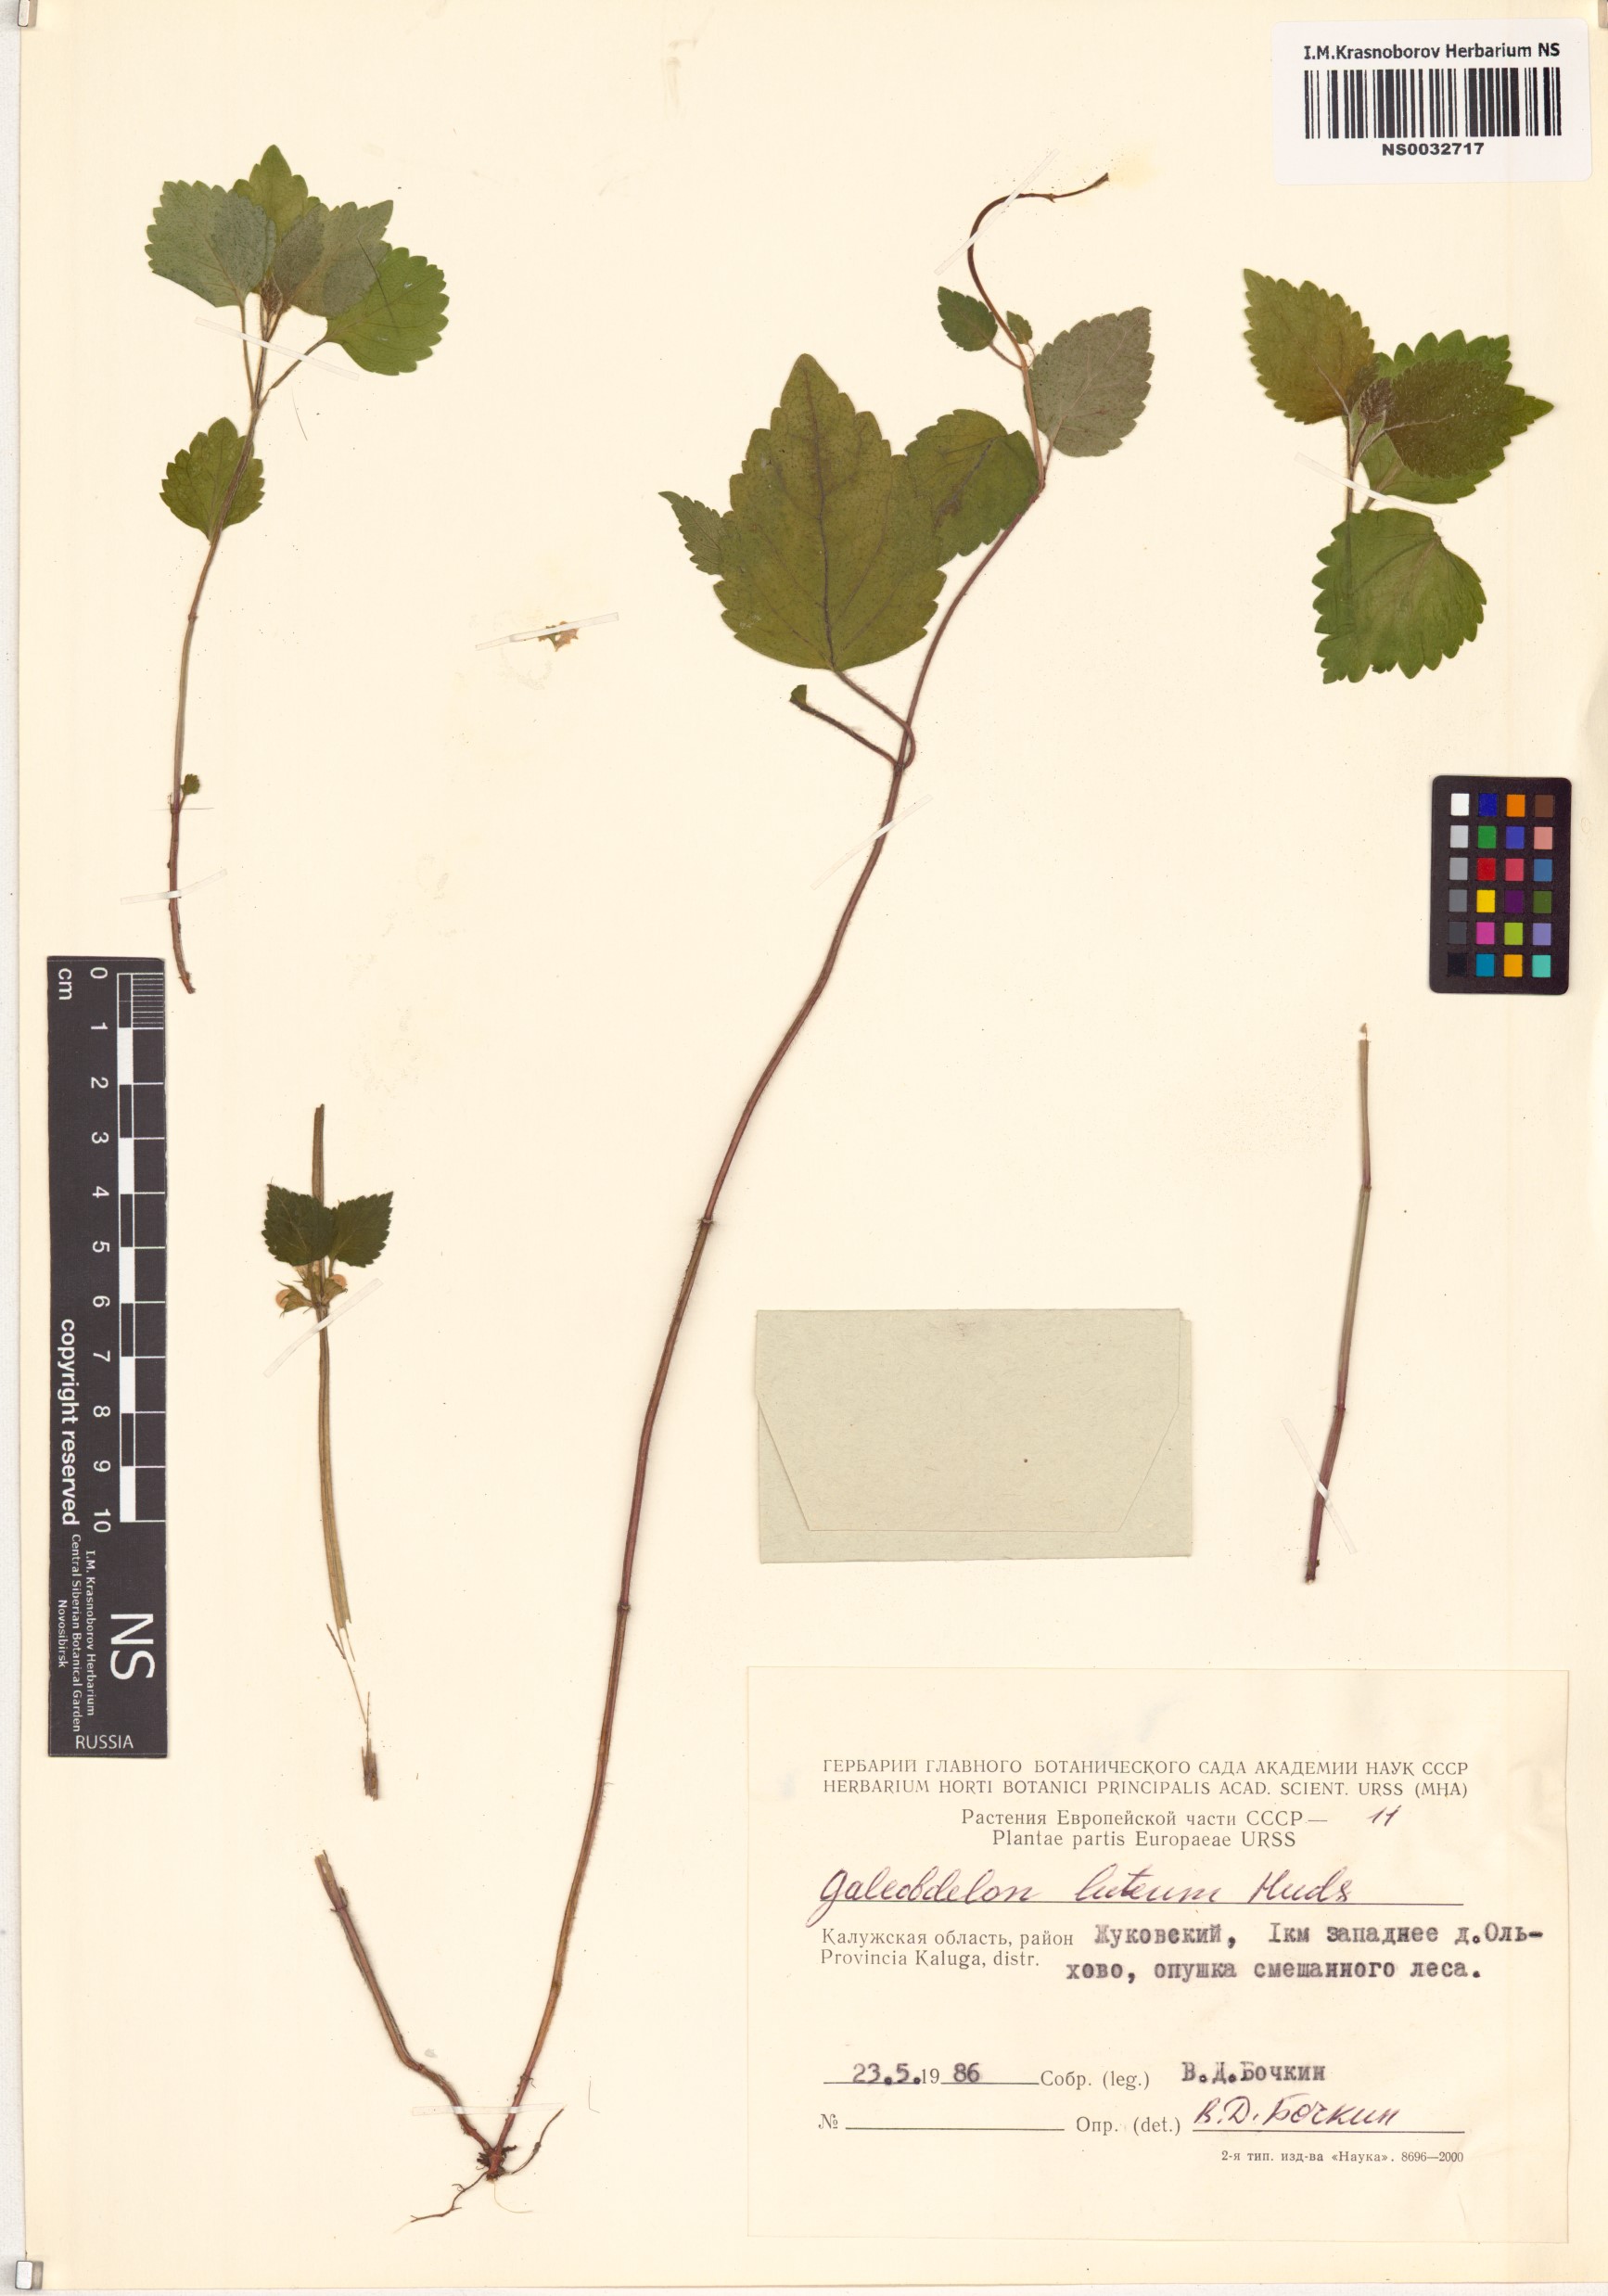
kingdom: Plantae
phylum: Tracheophyta
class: Magnoliopsida
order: Lamiales
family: Lamiaceae
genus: Lamium
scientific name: Lamium galeobdolon
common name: Yellow archangel
